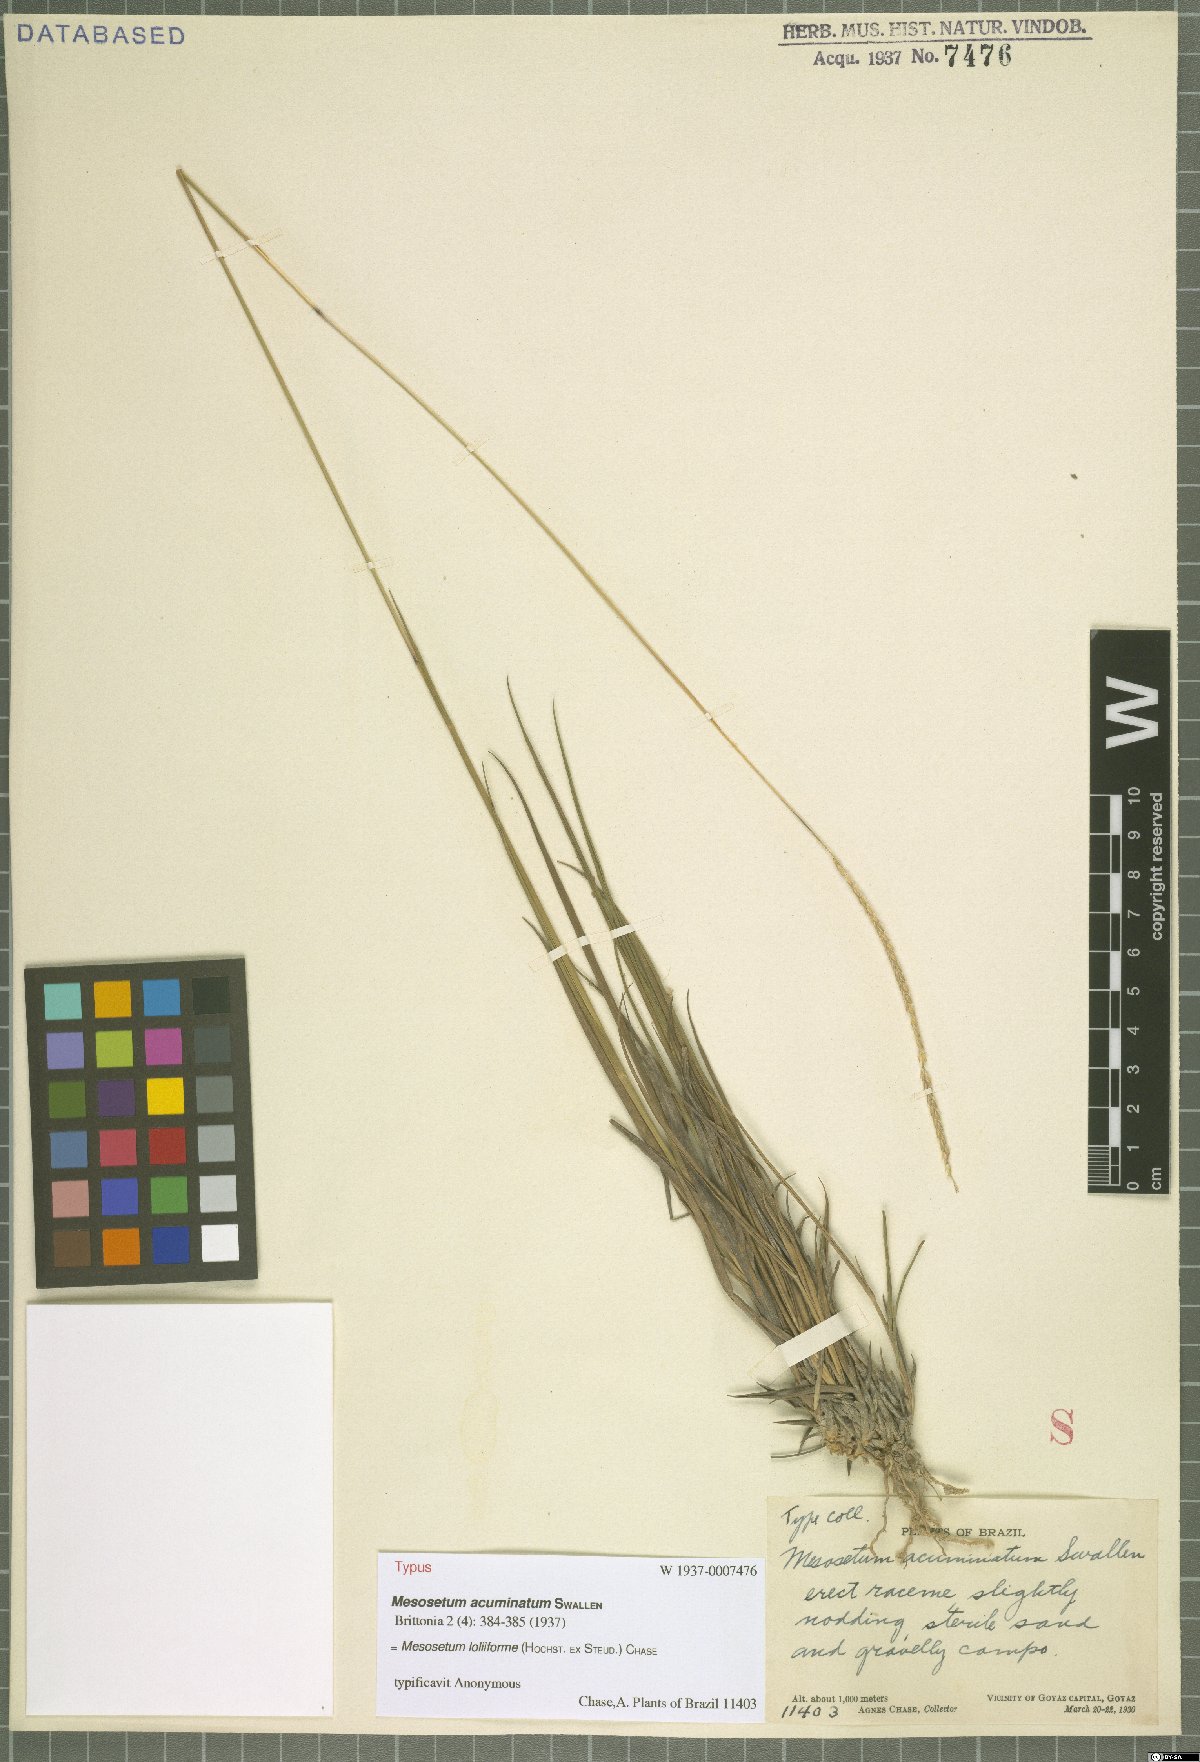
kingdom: Plantae
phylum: Tracheophyta
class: Liliopsida
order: Poales
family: Poaceae
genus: Mesosetum
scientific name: Mesosetum loliiforme
